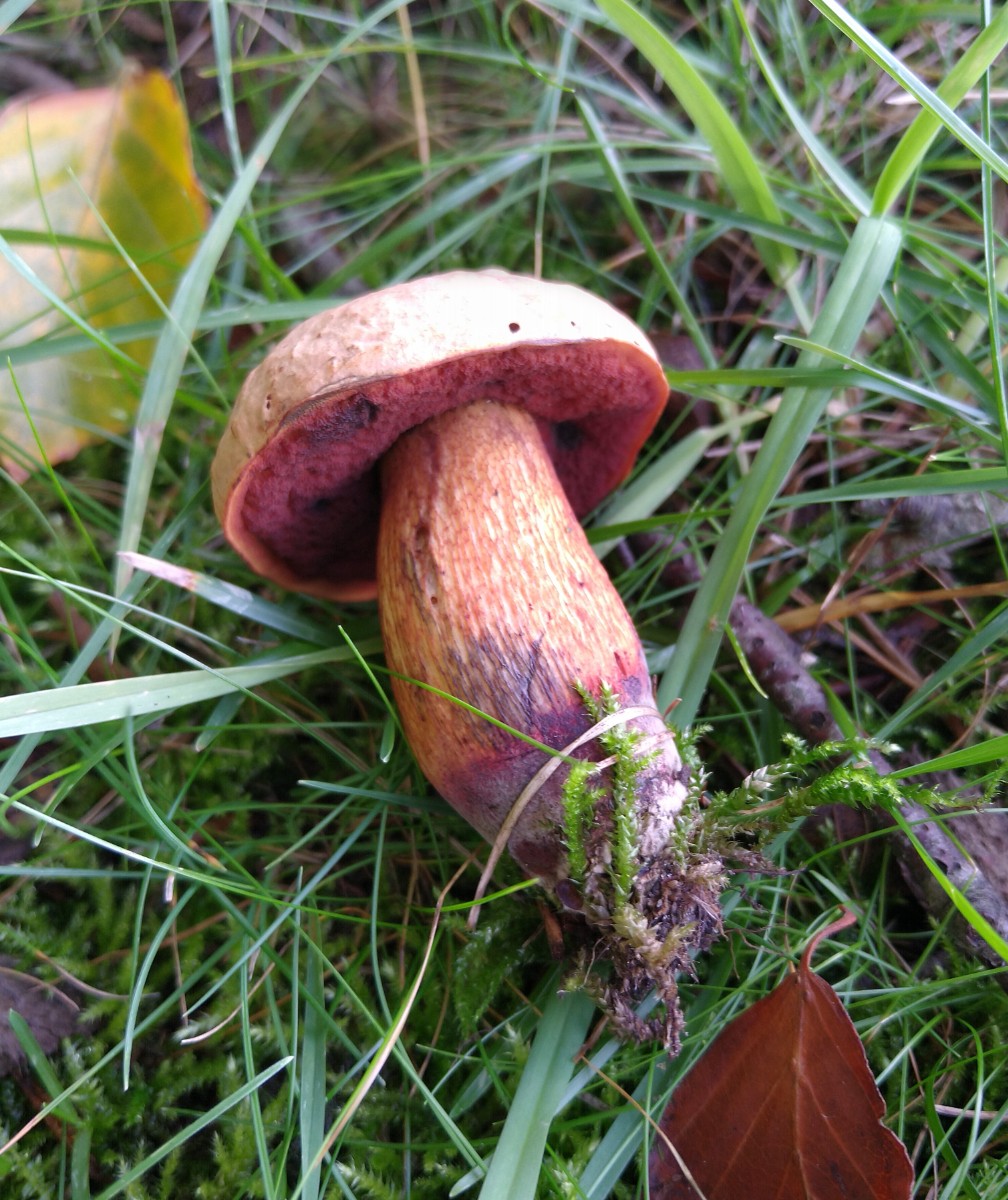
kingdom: Fungi
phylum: Basidiomycota
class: Agaricomycetes
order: Boletales
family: Boletaceae
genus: Suillellus
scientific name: Suillellus luridus
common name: netstokket indigorørhat
